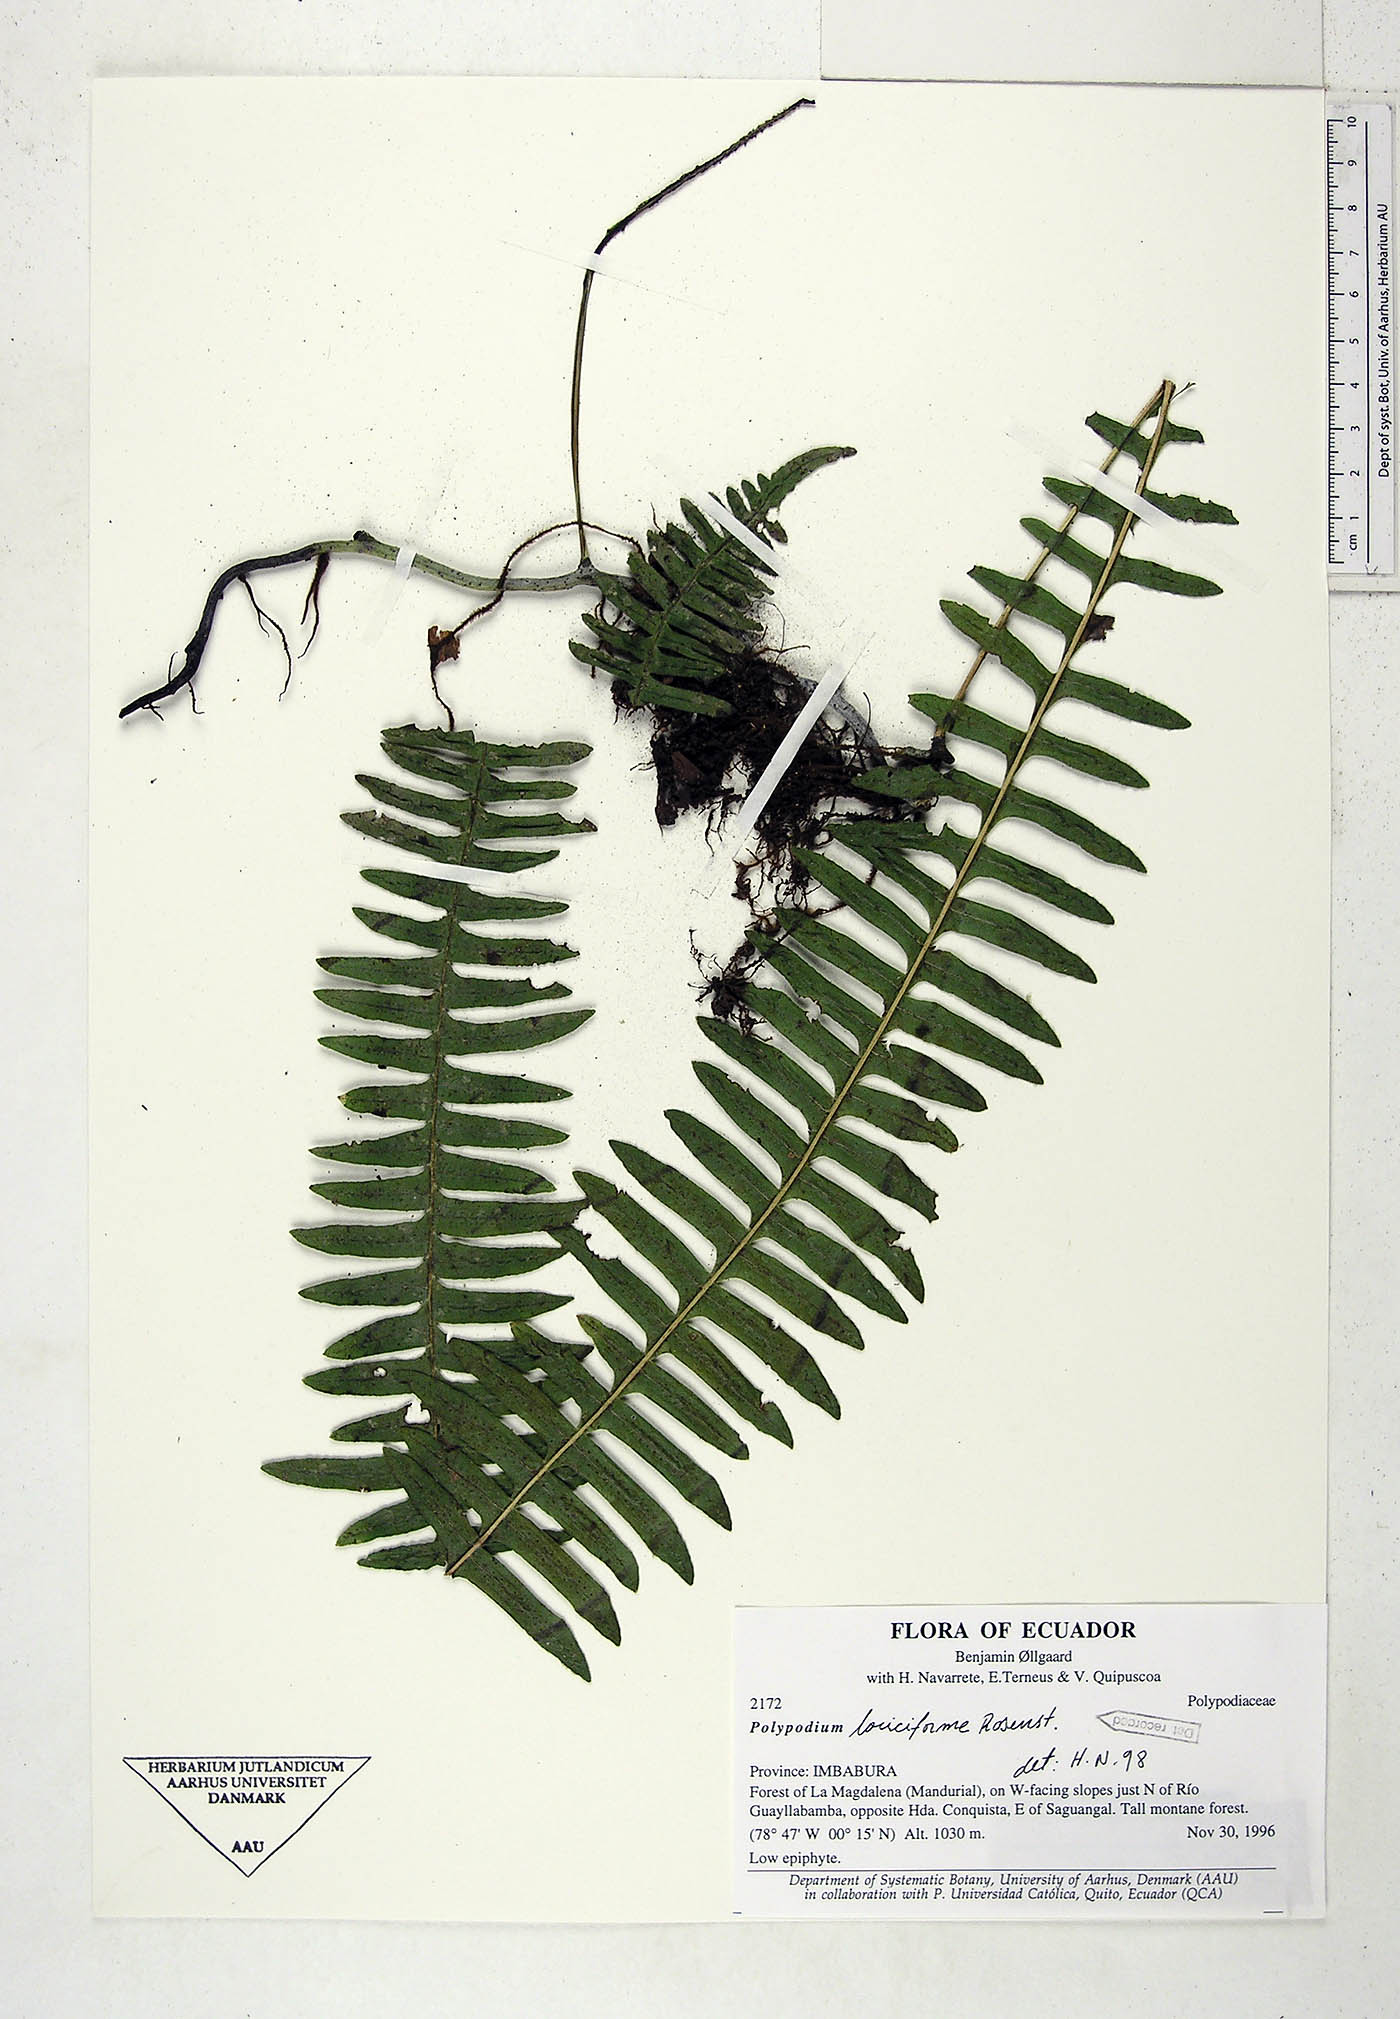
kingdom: Plantae
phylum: Tracheophyta
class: Polypodiopsida
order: Polypodiales
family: Polypodiaceae
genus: Serpocaulon
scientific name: Serpocaulon loriciforme
